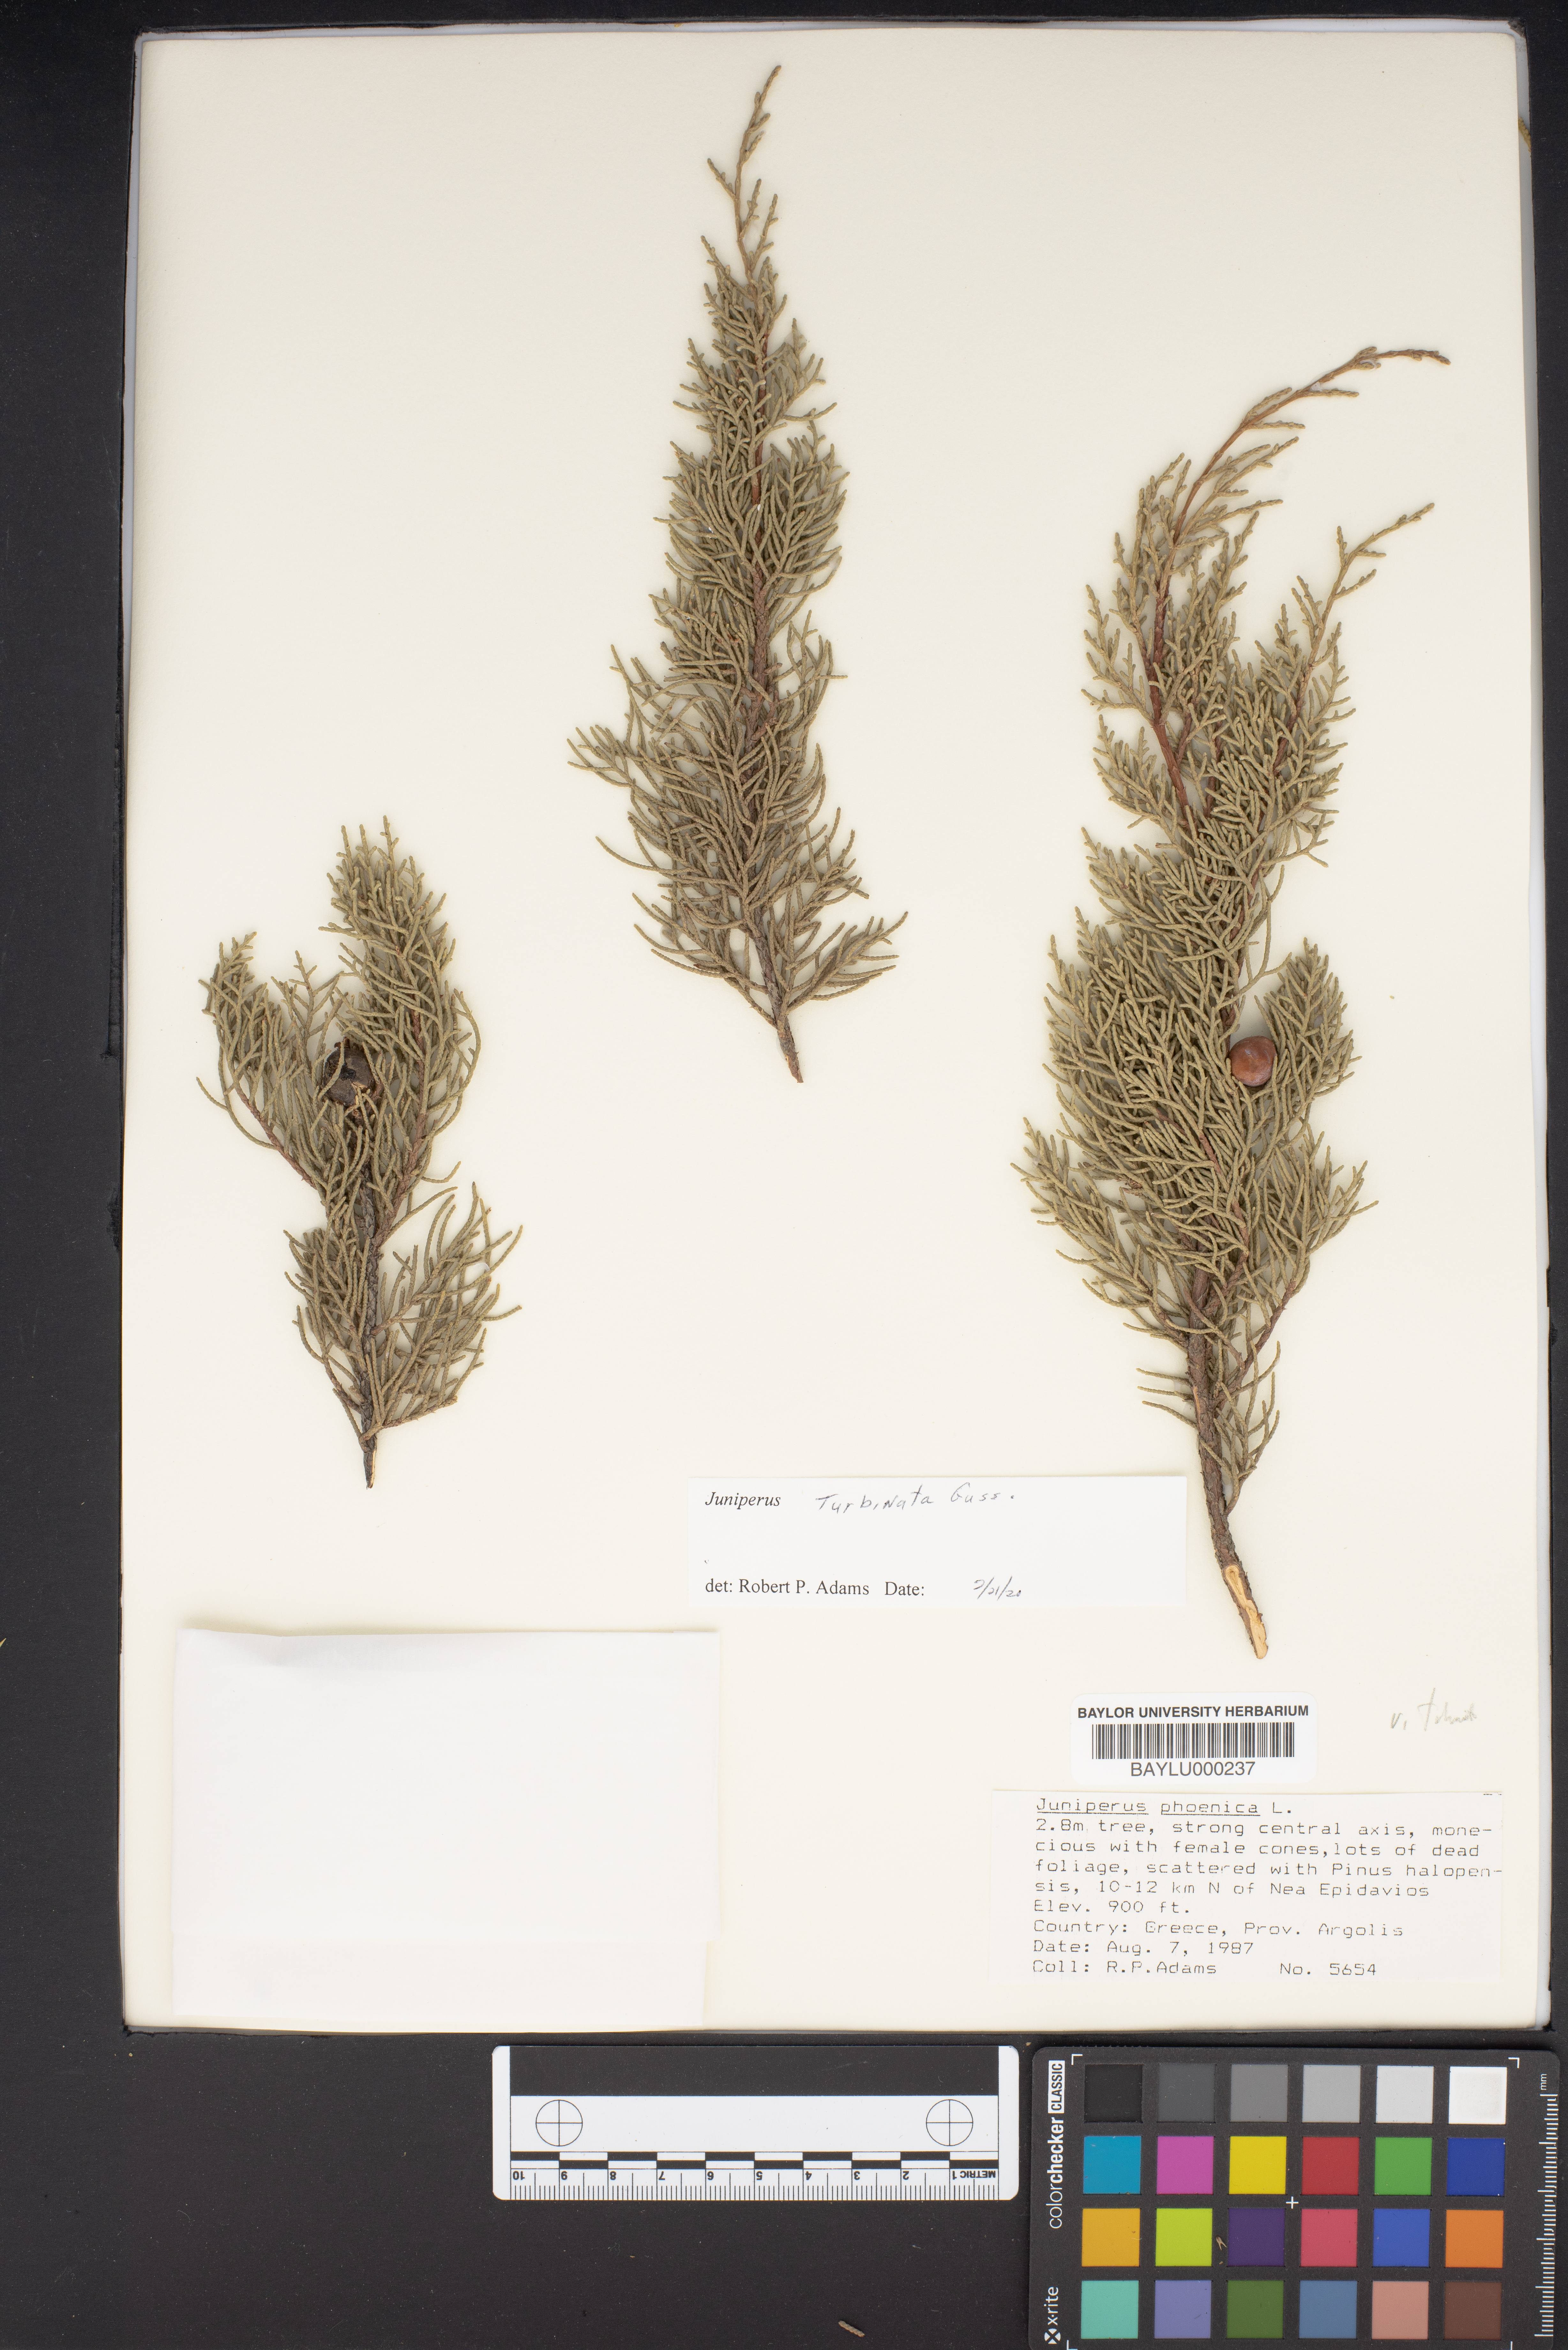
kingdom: Plantae
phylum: Tracheophyta
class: Pinopsida
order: Pinales
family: Cupressaceae
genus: Juniperus
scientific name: Juniperus phoenicea
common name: Phoenician juniper
